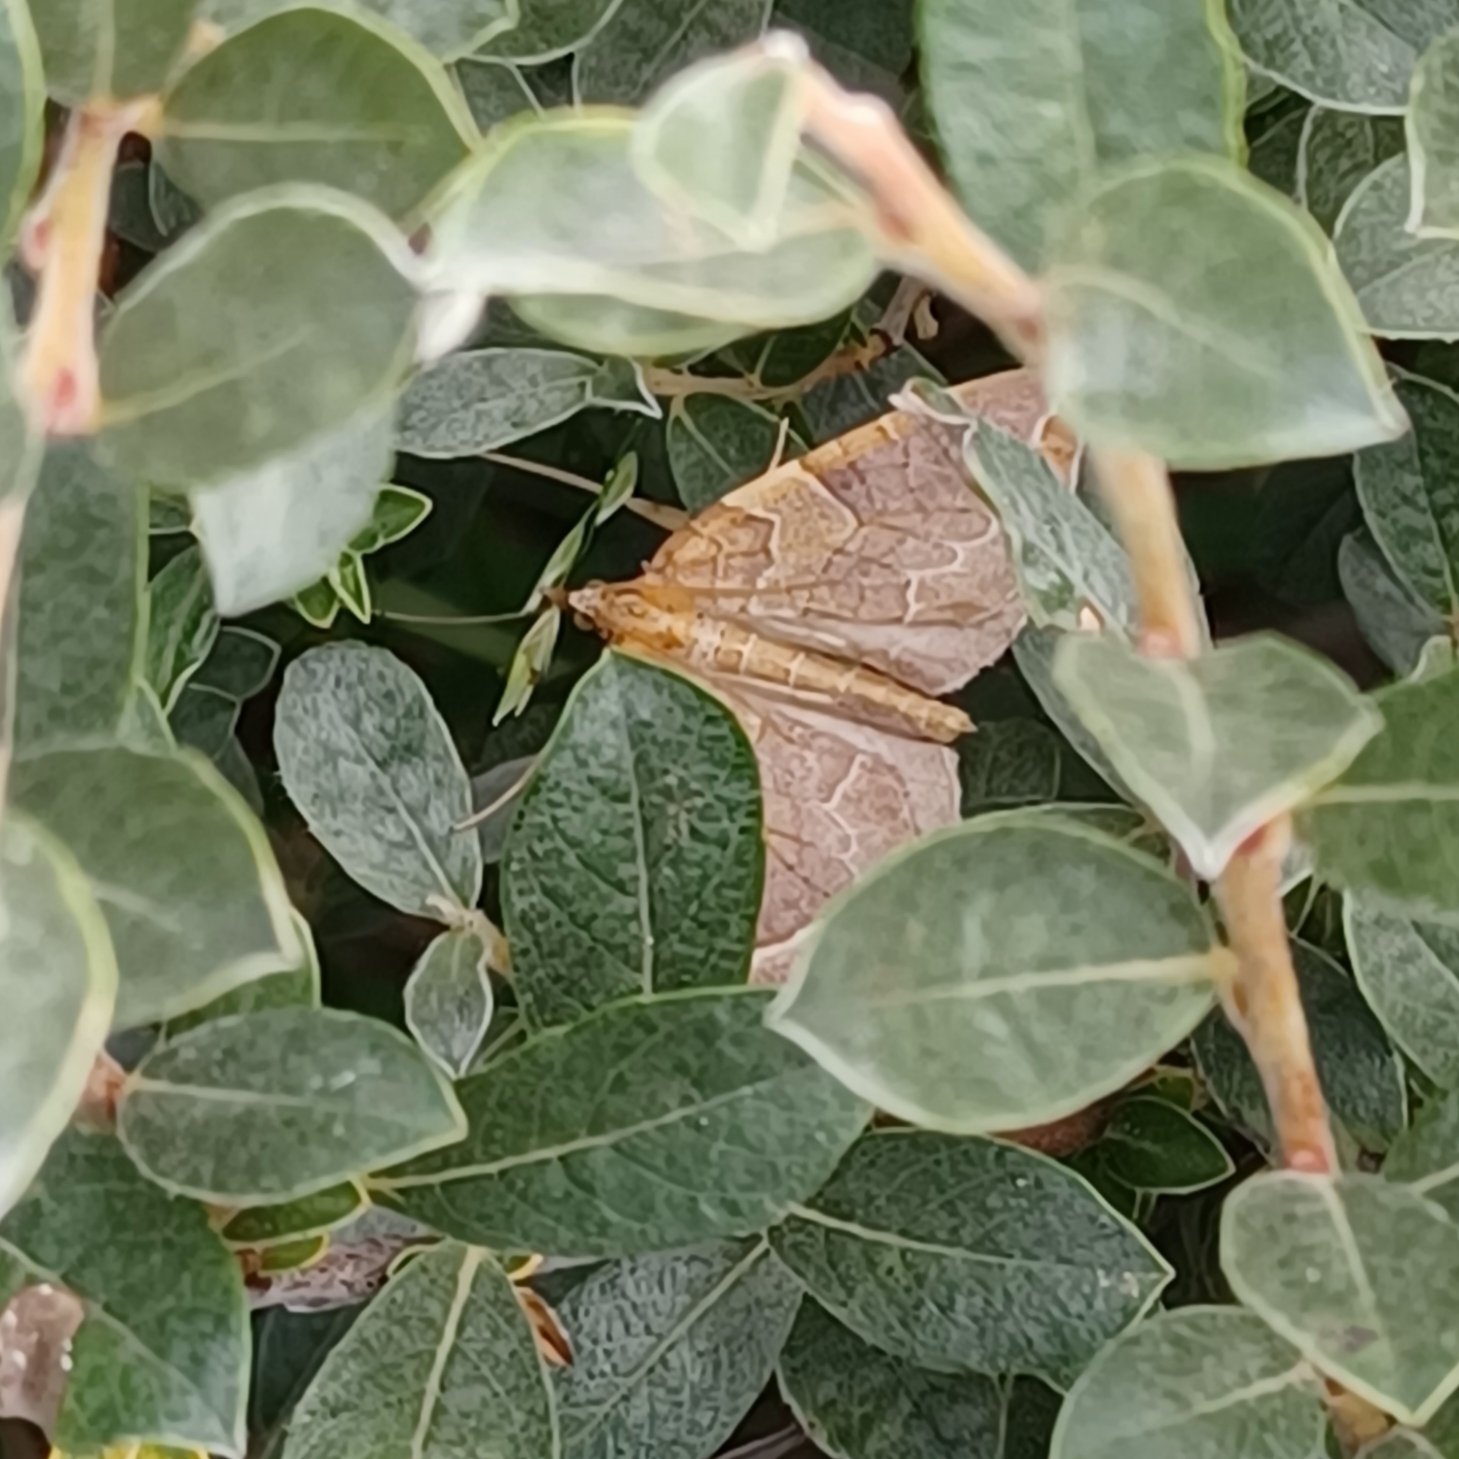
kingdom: Animalia
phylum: Arthropoda
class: Insecta
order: Lepidoptera
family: Geometridae
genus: Eulithis
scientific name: Eulithis testata
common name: Pile-havemåler
